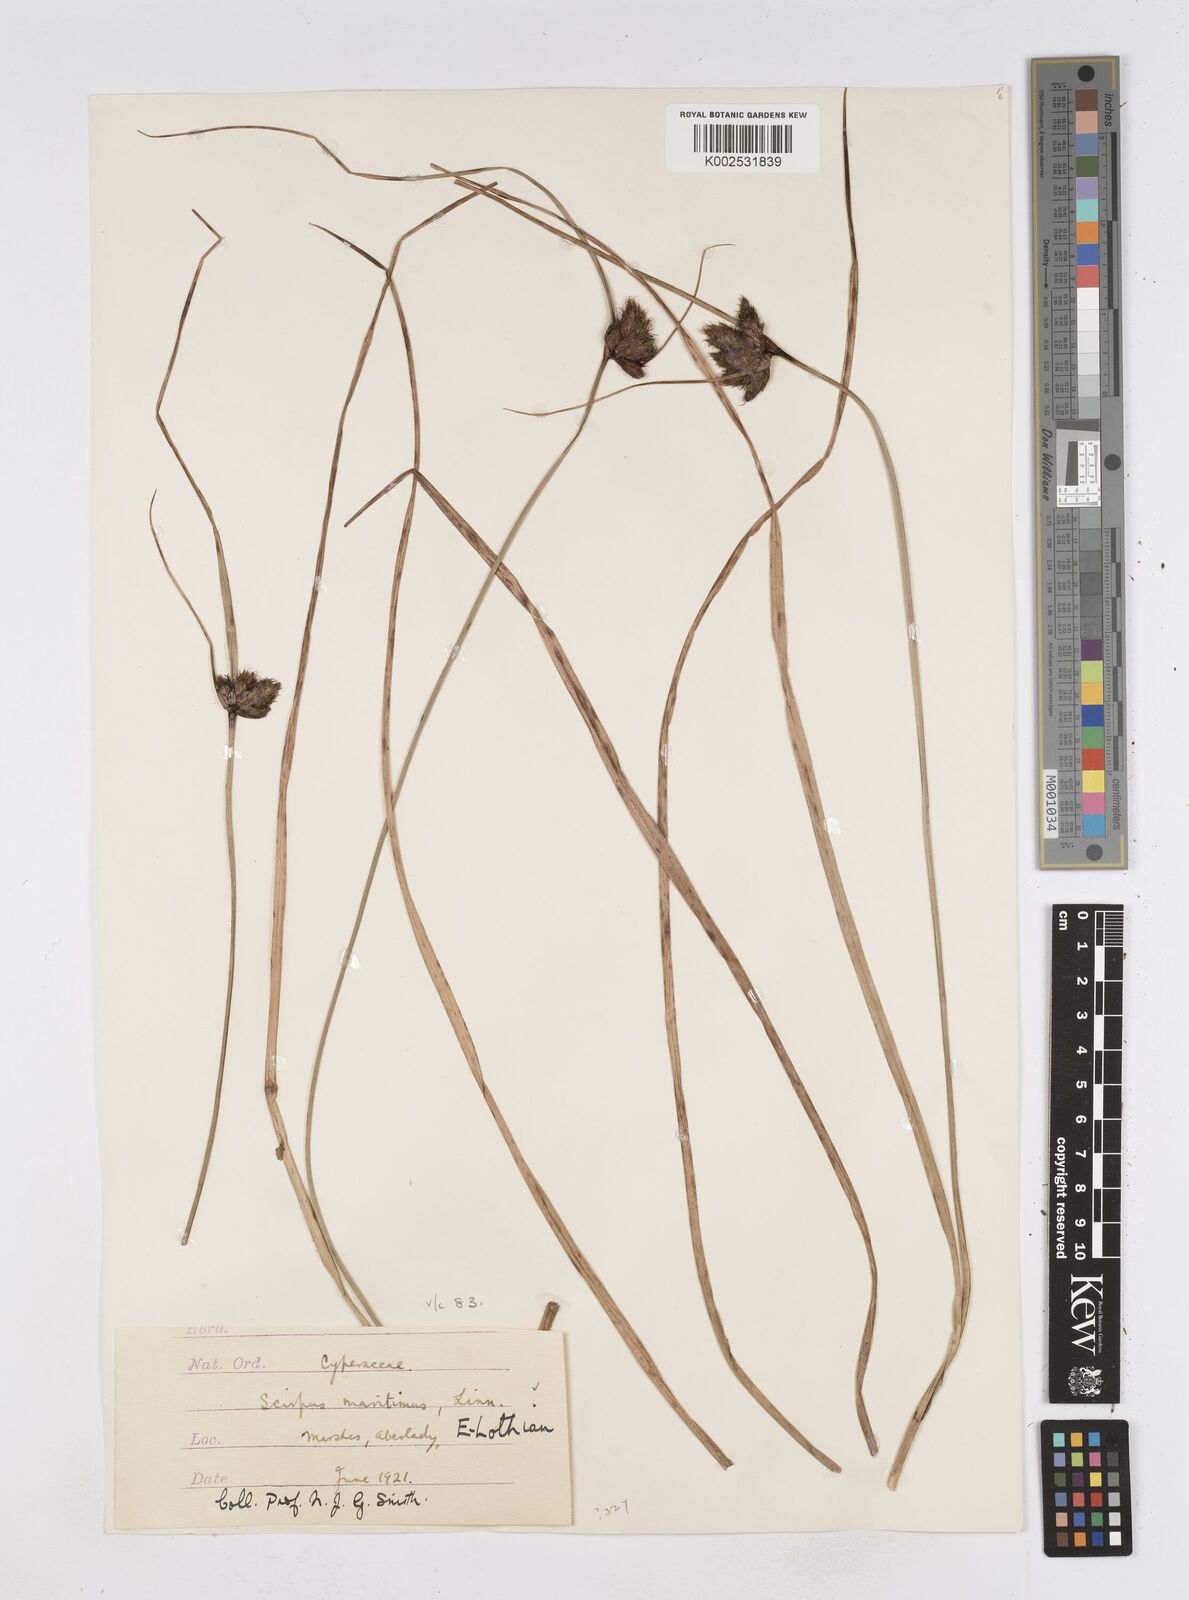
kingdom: Plantae
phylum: Tracheophyta
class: Liliopsida
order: Poales
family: Cyperaceae
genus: Bolboschoenus
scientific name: Bolboschoenus maritimus
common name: Sea club-rush
